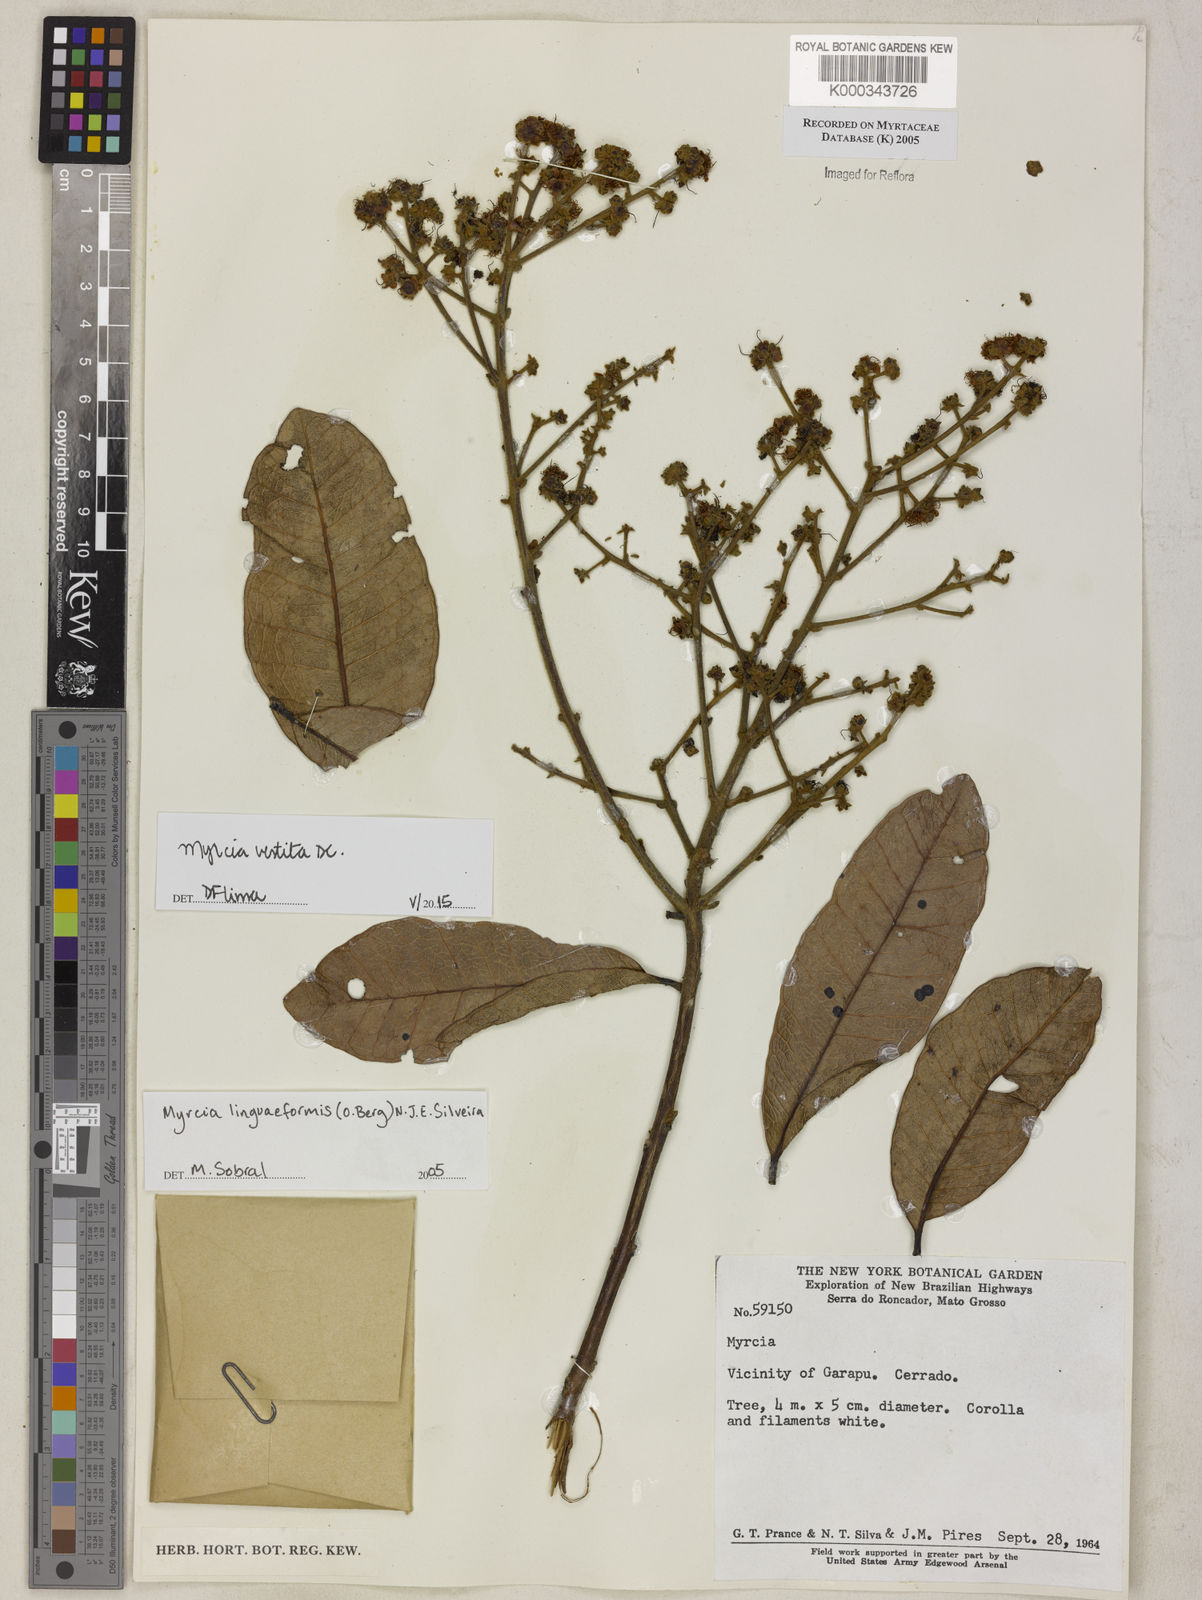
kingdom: Plantae
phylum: Tracheophyta
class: Magnoliopsida
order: Myrtales
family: Myrtaceae
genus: Myrcia
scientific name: Myrcia vestita
